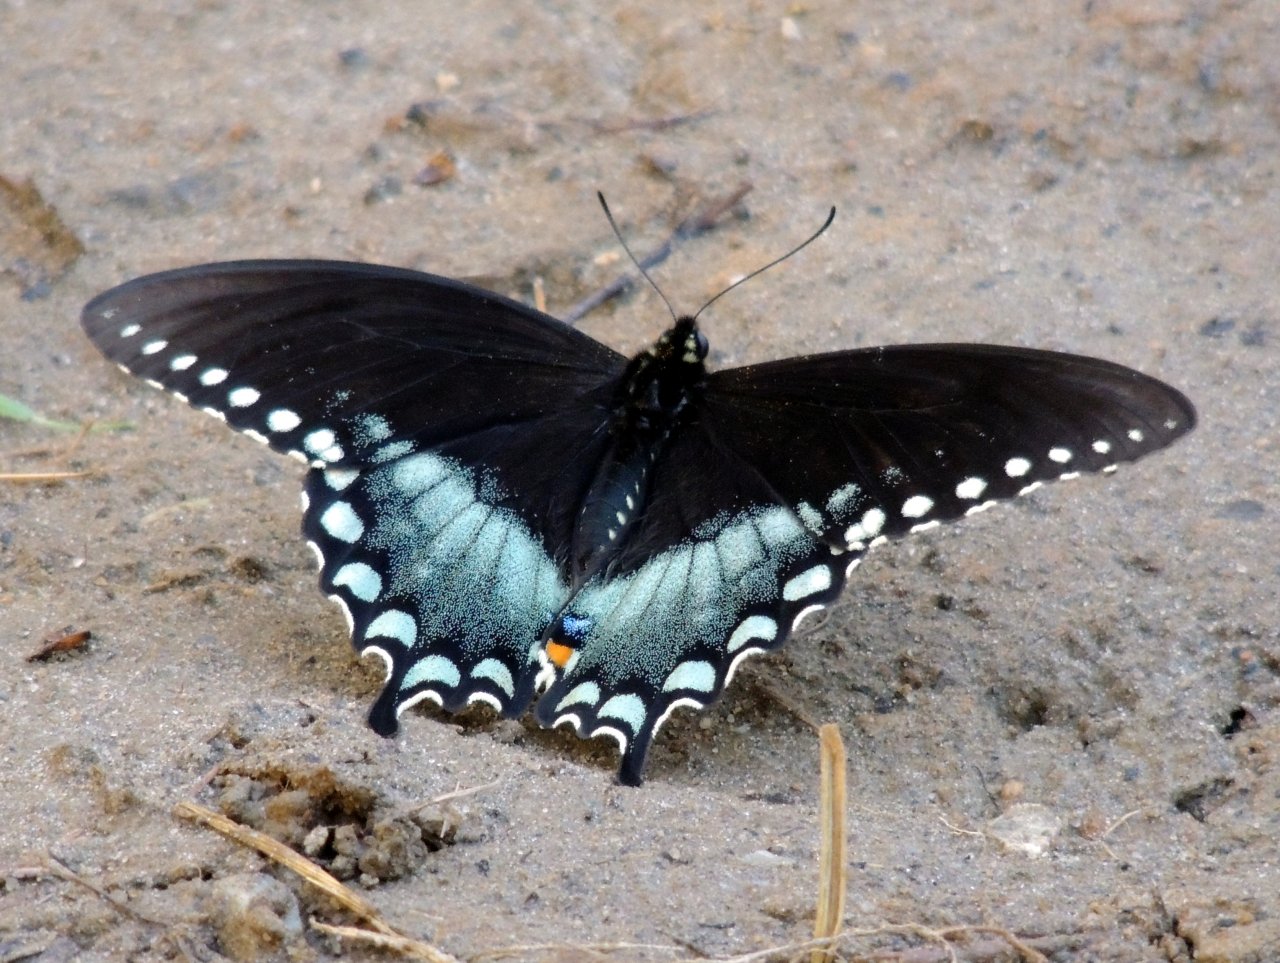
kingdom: Animalia
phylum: Arthropoda
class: Insecta
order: Lepidoptera
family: Papilionidae
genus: Pterourus
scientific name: Pterourus troilus
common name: Spicebush Swallowtail
